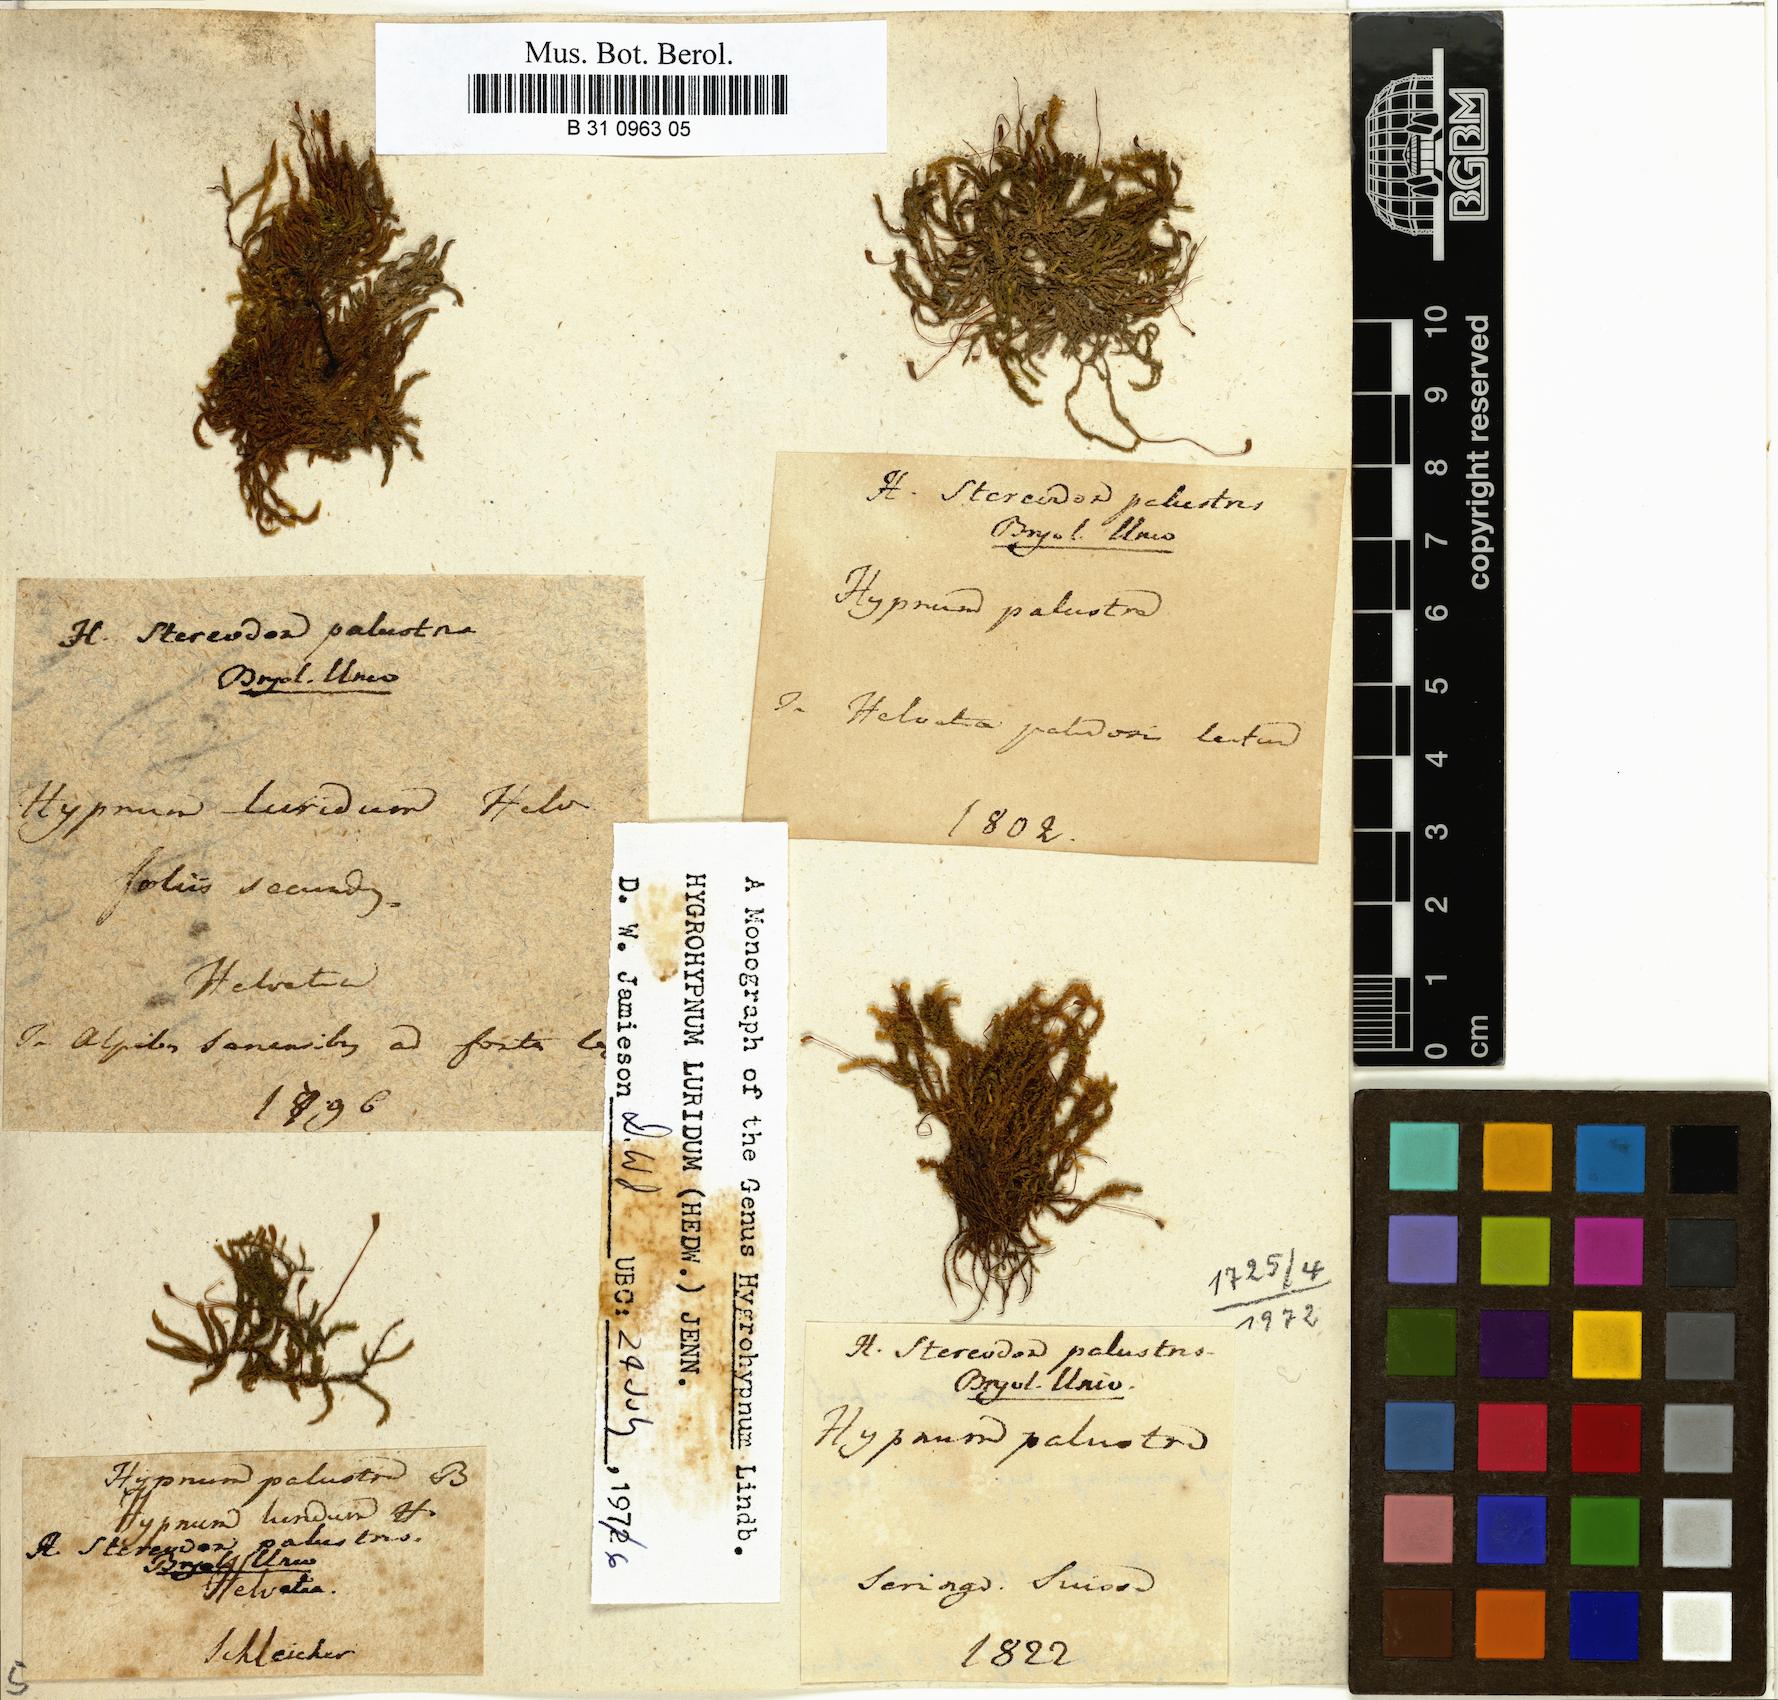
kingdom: Plantae
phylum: Bryophyta
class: Bryopsida
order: Hypnales
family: Amblystegiaceae
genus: Hygrohypnum
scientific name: Hygrohypnum luridum
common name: Drab brook moss
